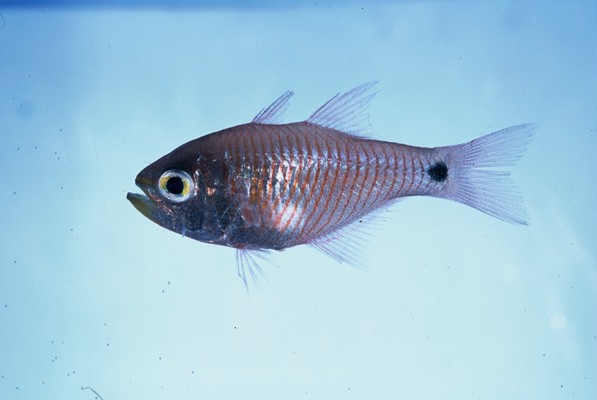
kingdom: Animalia
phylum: Chordata
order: Perciformes
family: Apogonidae
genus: Taeniamia
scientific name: Taeniamia fucata
